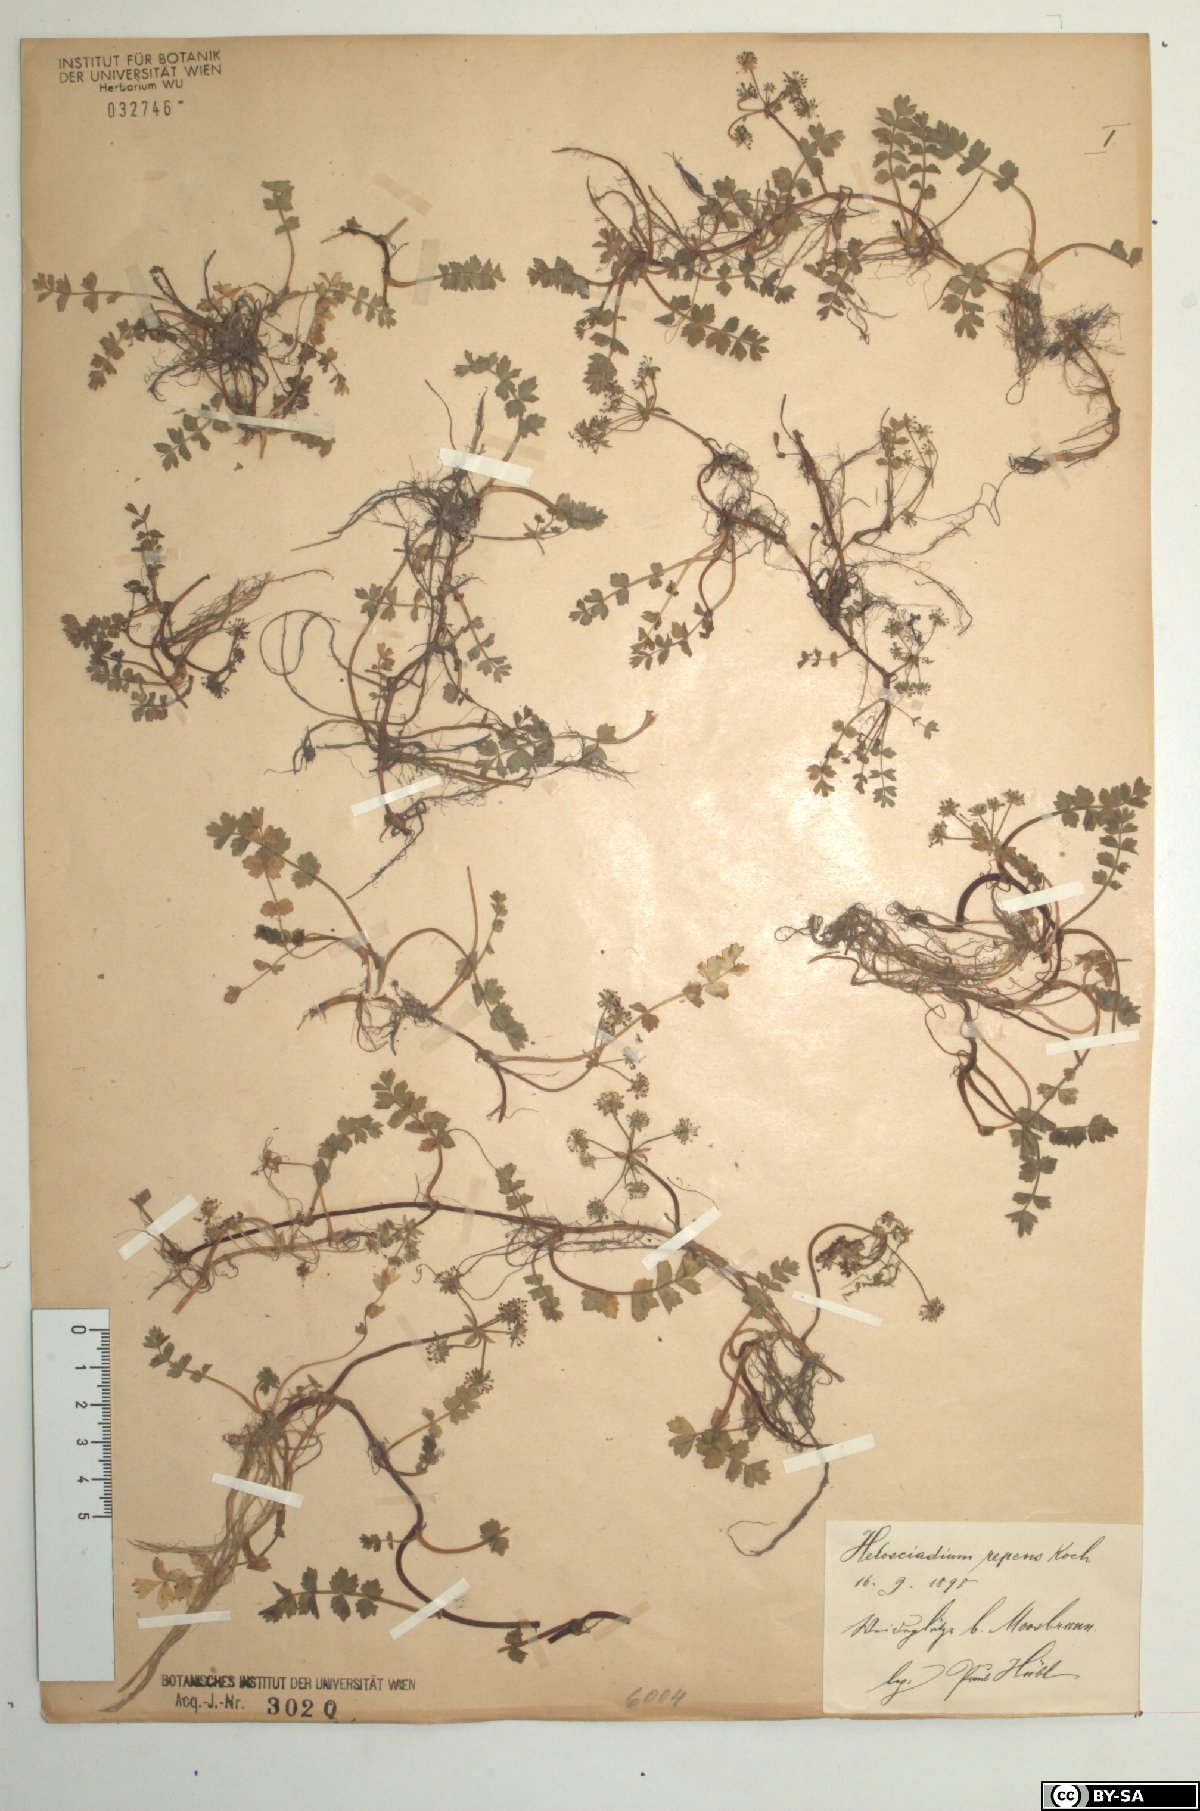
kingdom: Plantae
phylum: Tracheophyta
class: Magnoliopsida
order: Apiales
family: Apiaceae
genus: Helosciadium
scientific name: Helosciadium repens
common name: Creeping marshwort
